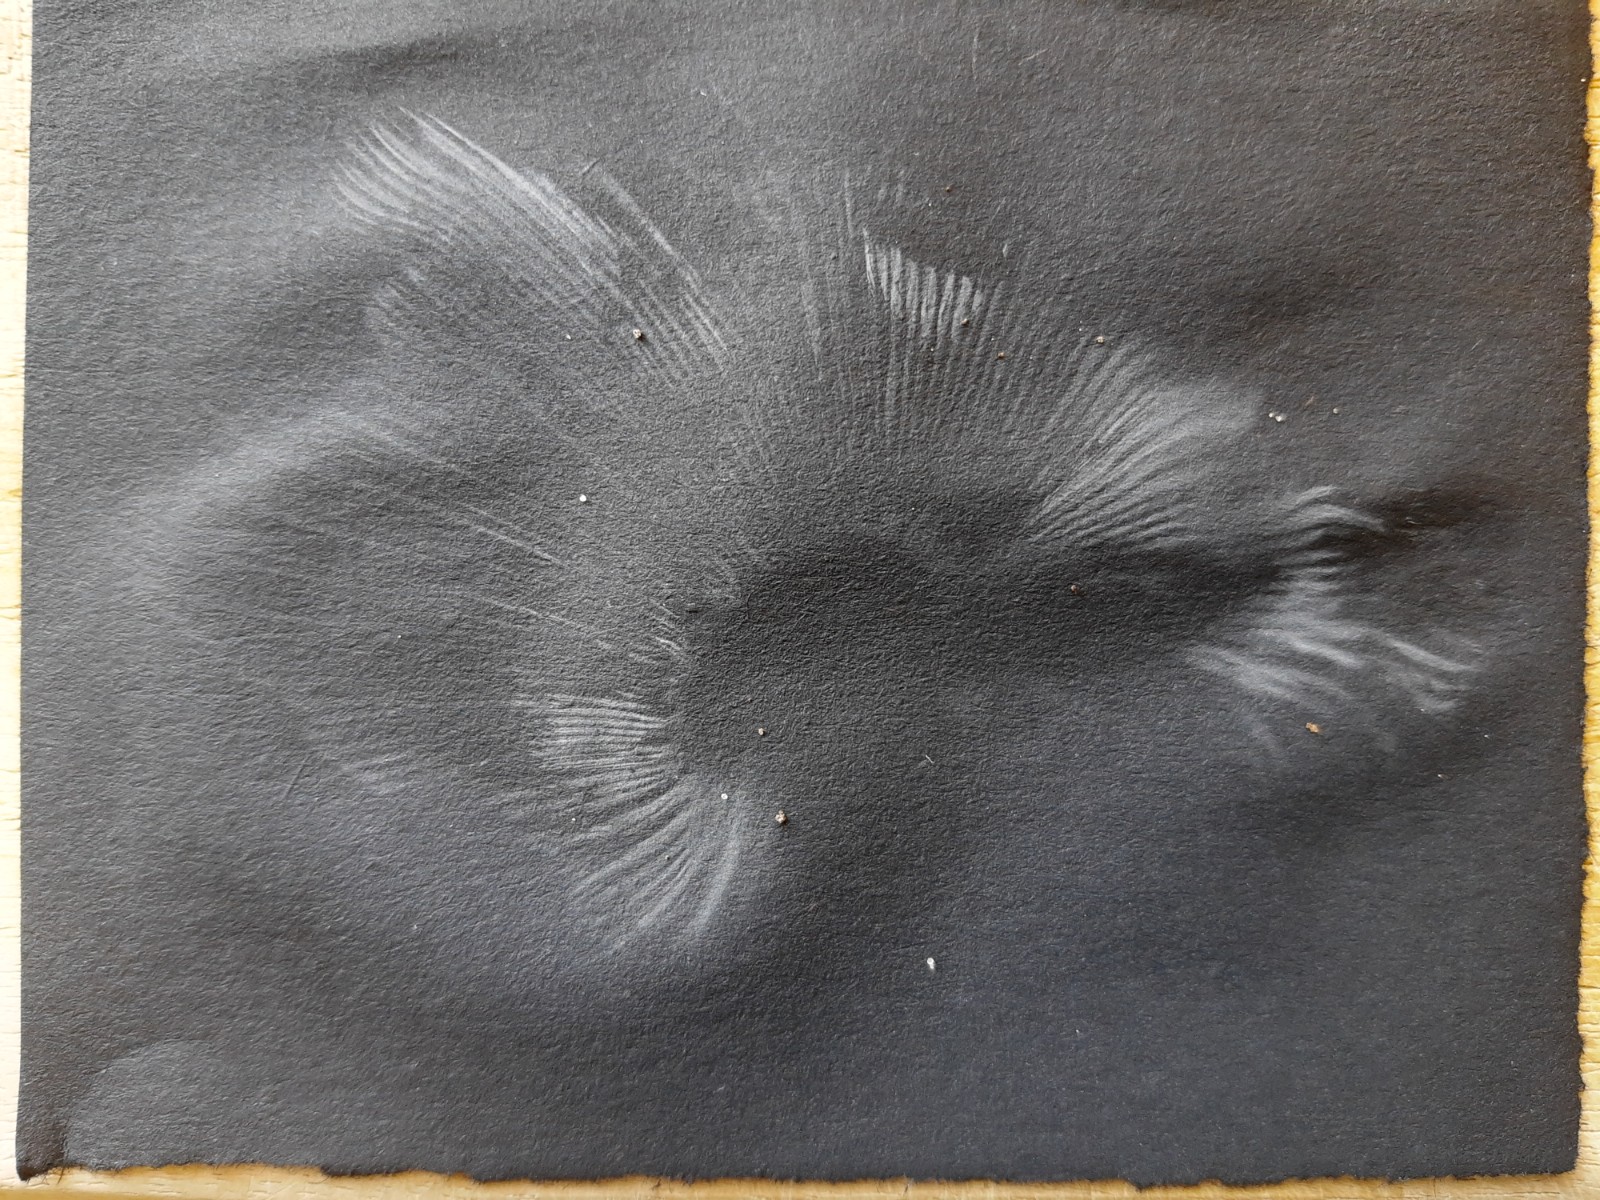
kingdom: Fungi
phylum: Basidiomycota
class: Agaricomycetes
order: Russulales
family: Russulaceae
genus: Russula
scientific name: Russula
